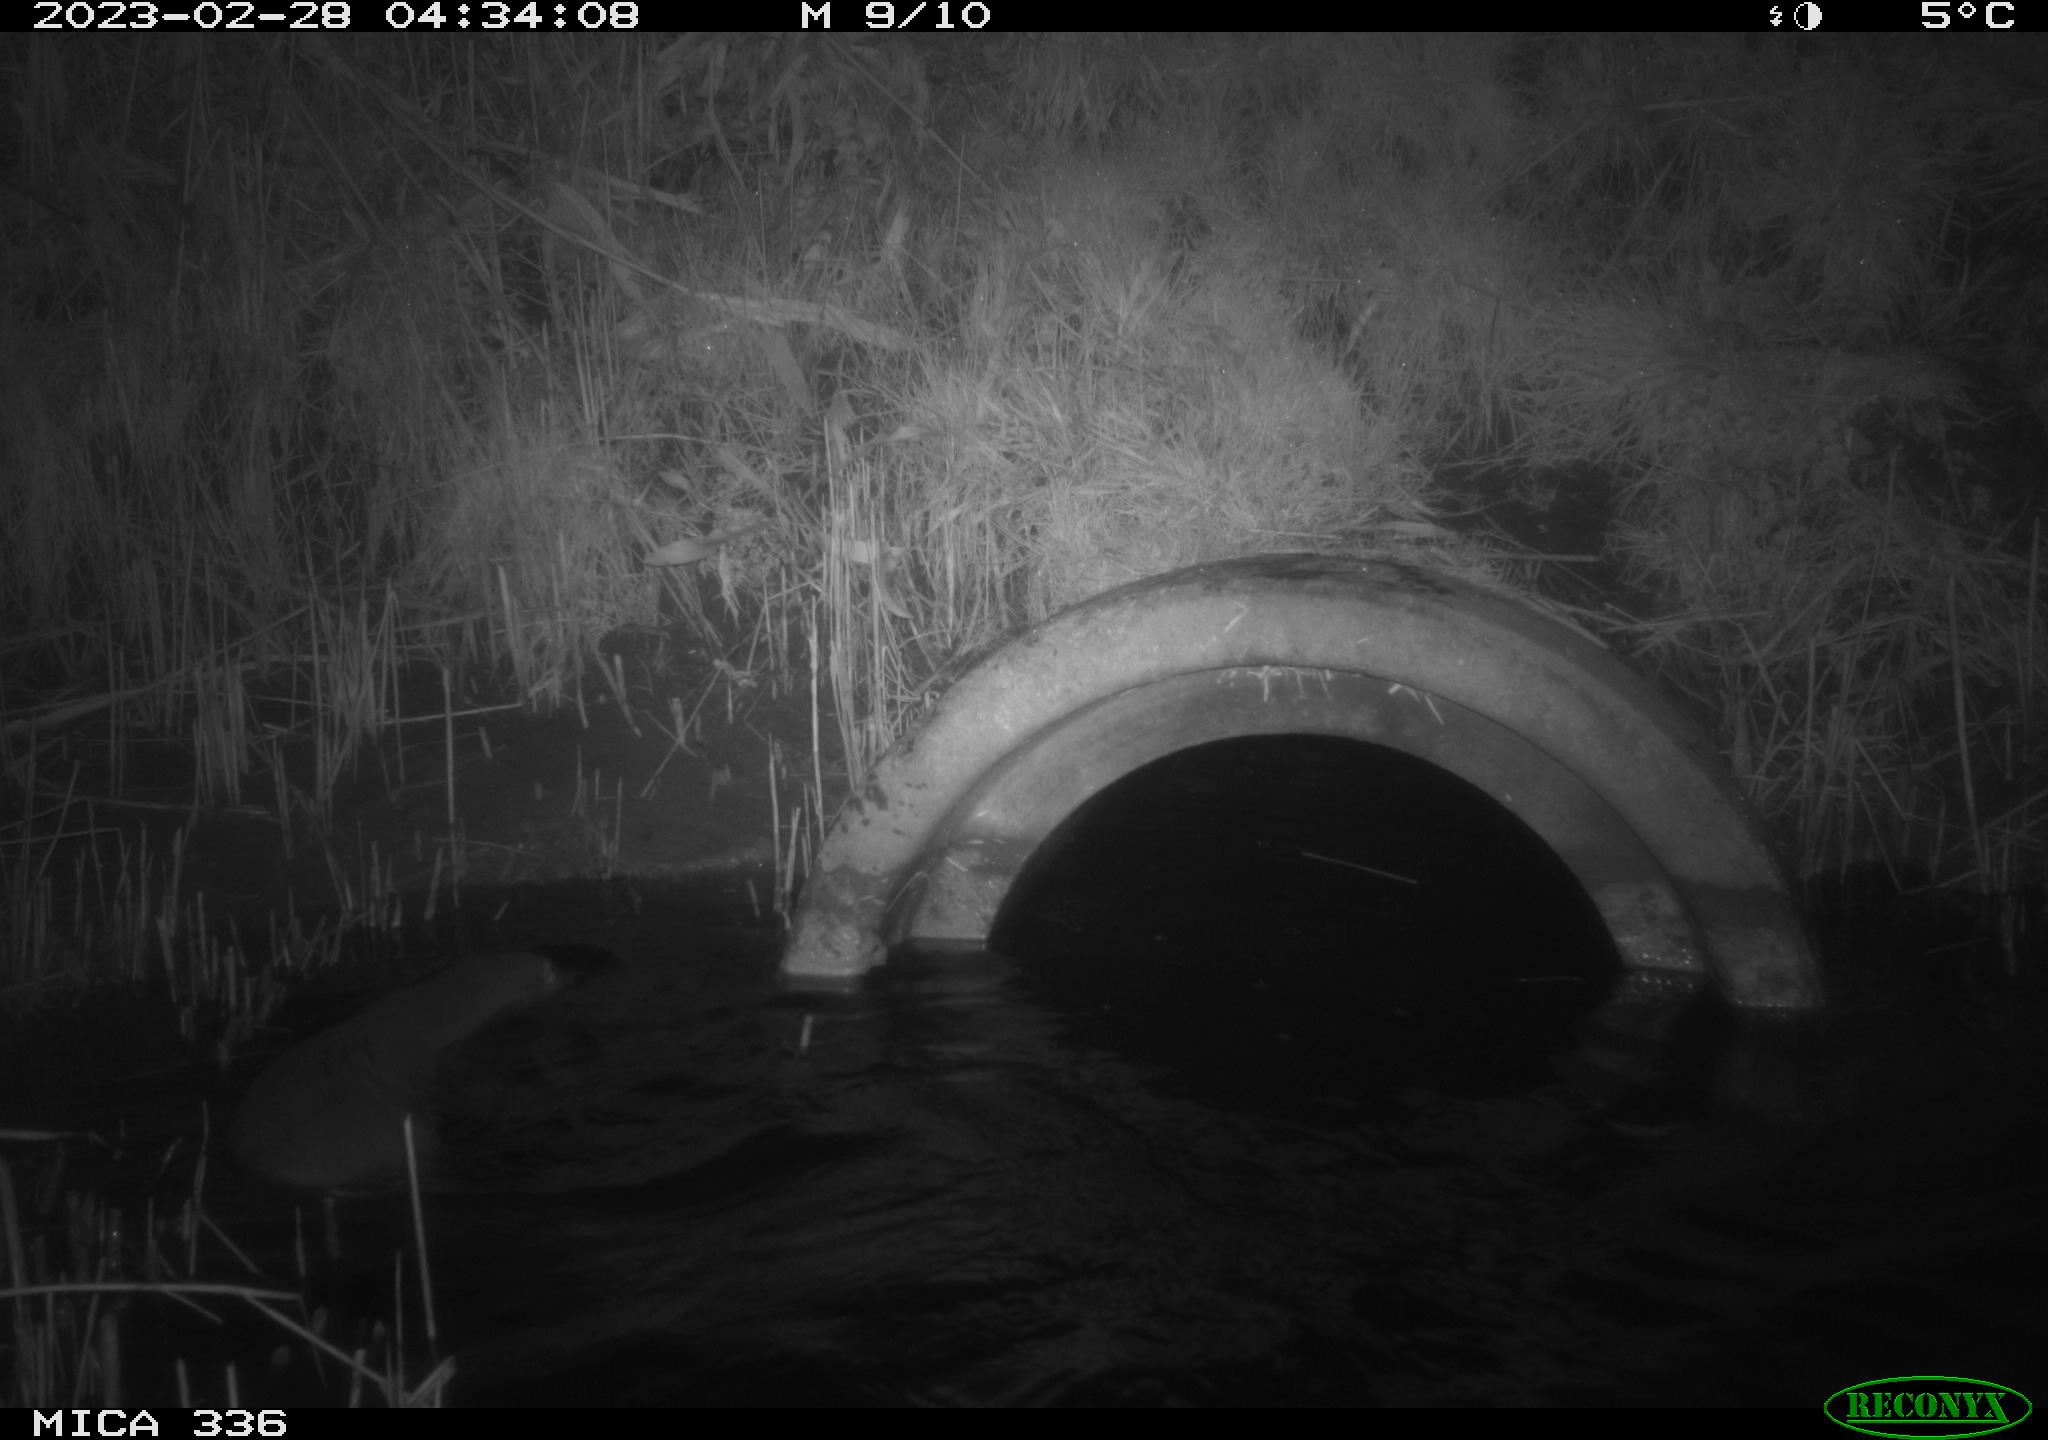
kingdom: Animalia
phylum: Chordata
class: Mammalia
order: Carnivora
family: Mustelidae
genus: Lutra
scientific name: Lutra lutra
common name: European otter
